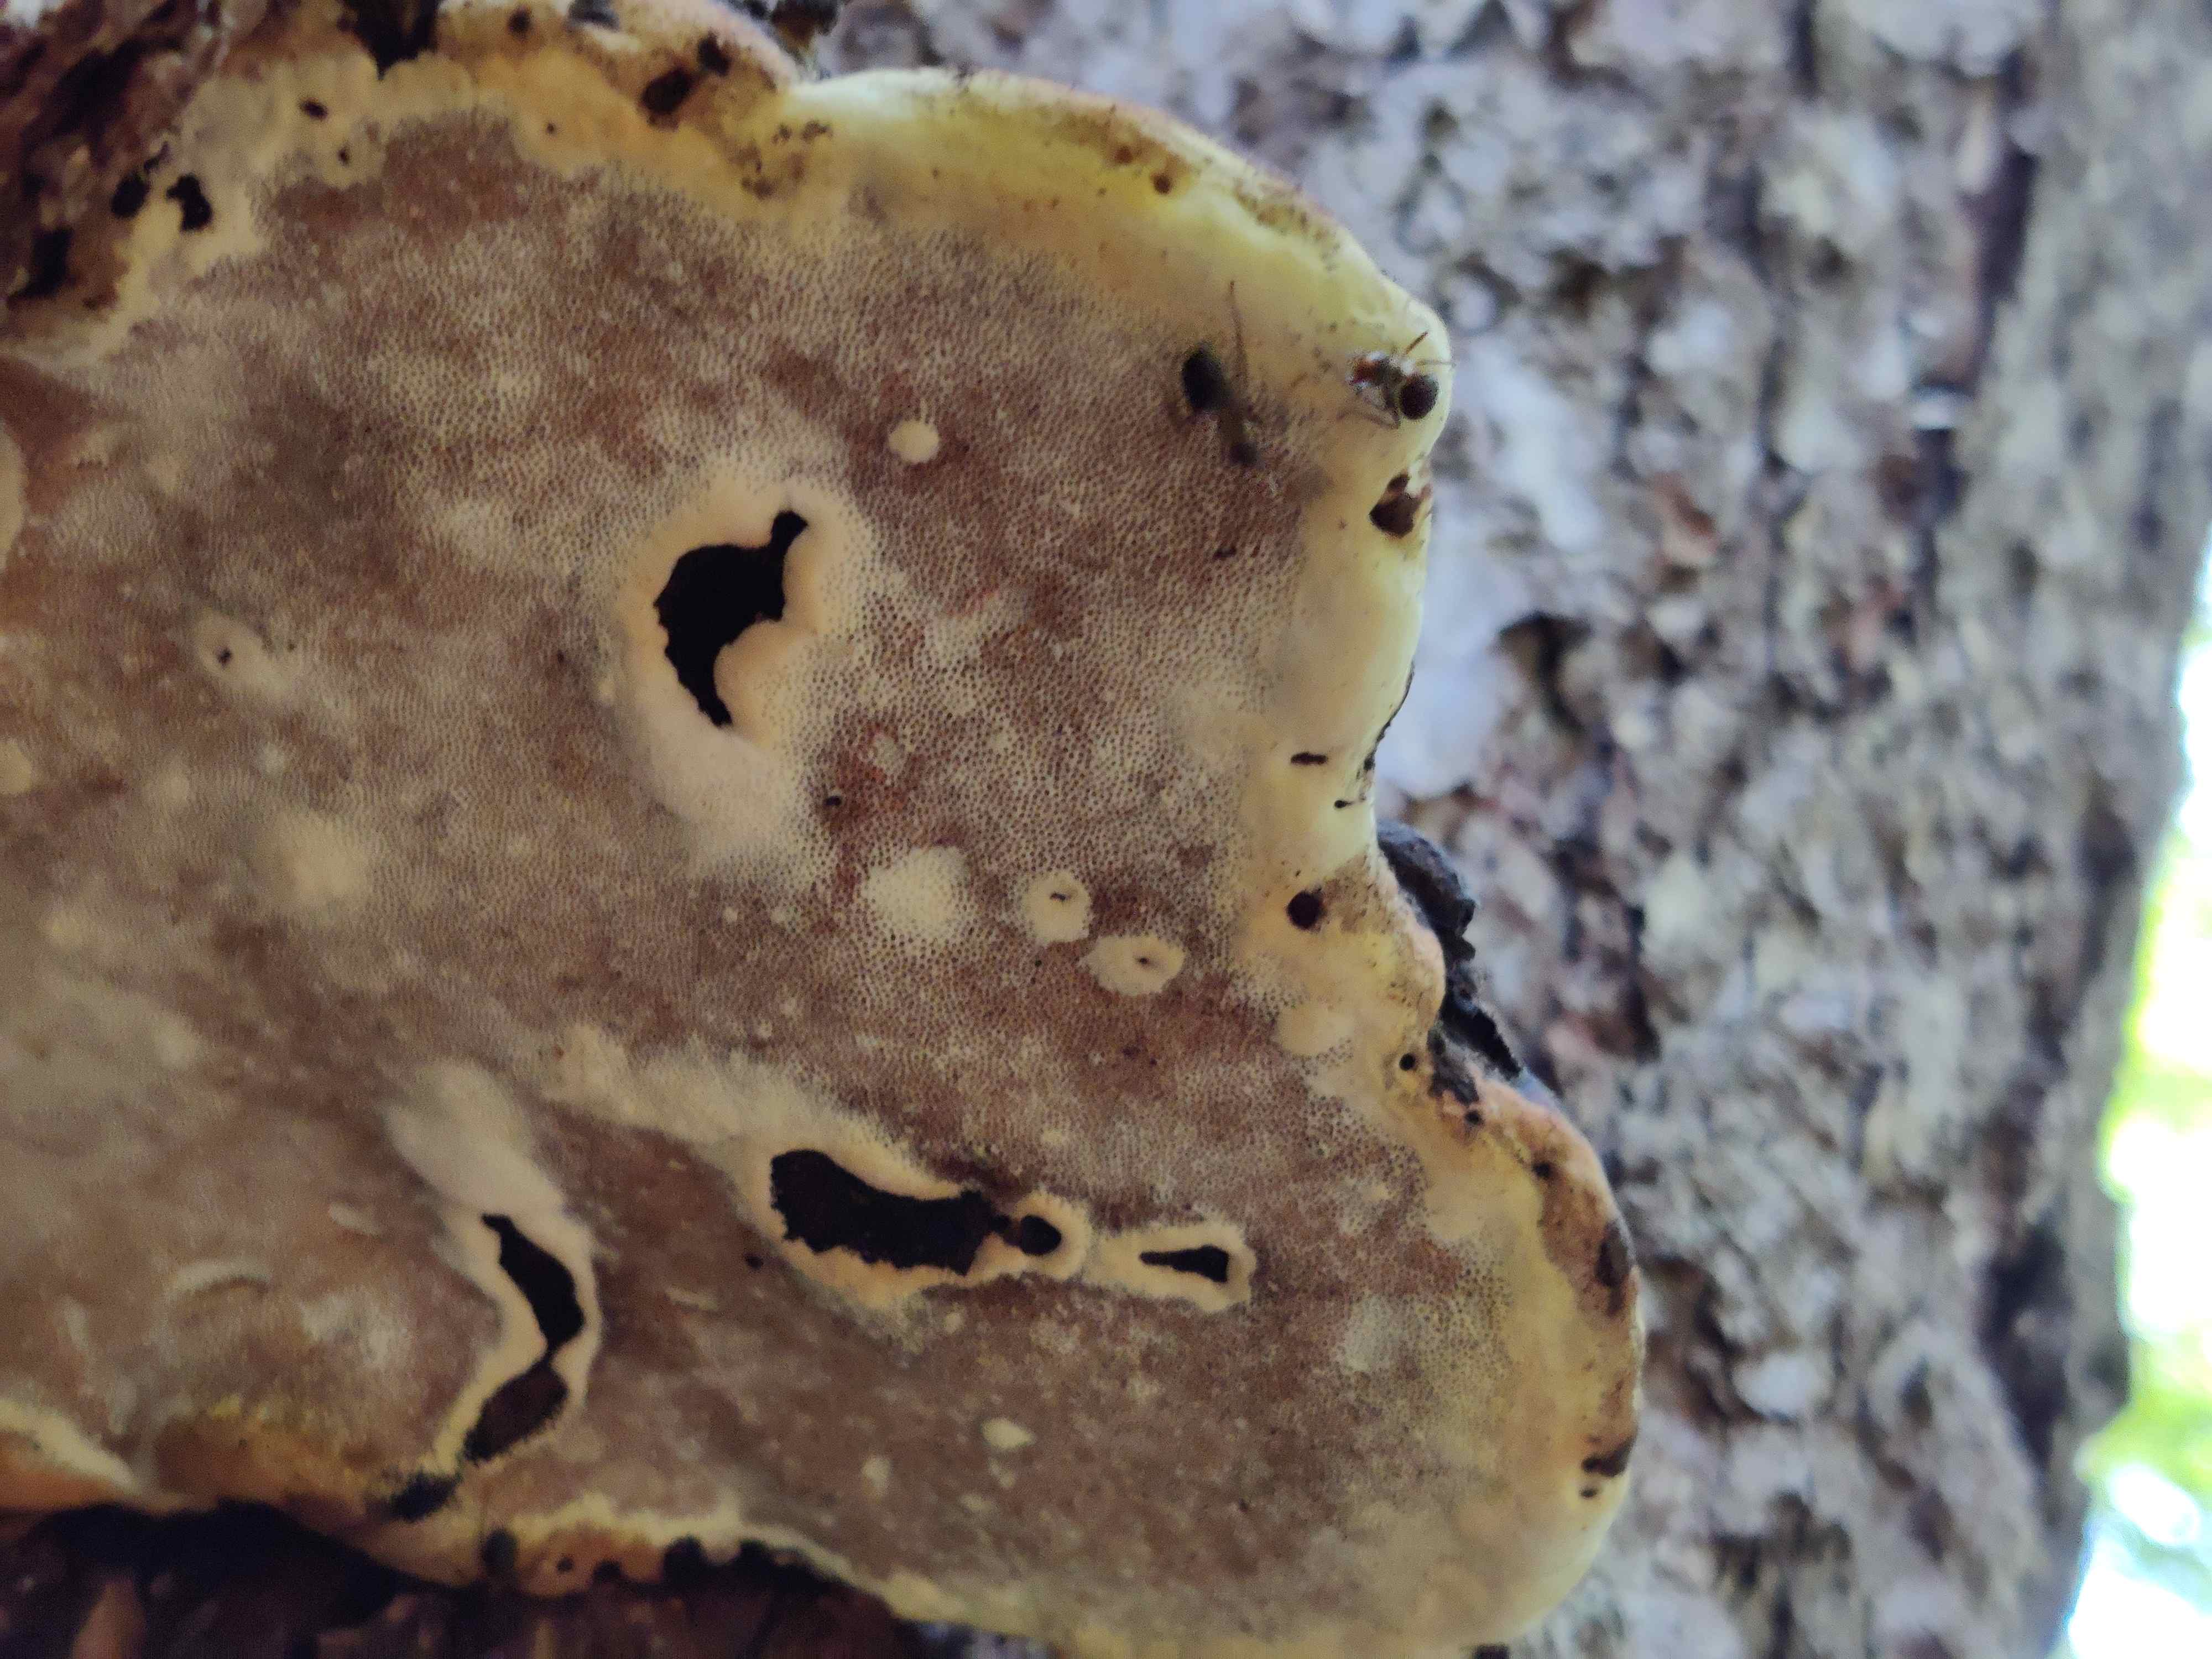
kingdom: Fungi
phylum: Basidiomycota
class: Agaricomycetes
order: Polyporales
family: Fomitopsidaceae
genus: Fomitopsis
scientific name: Fomitopsis pinicola
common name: randbæltet hovporesvamp
